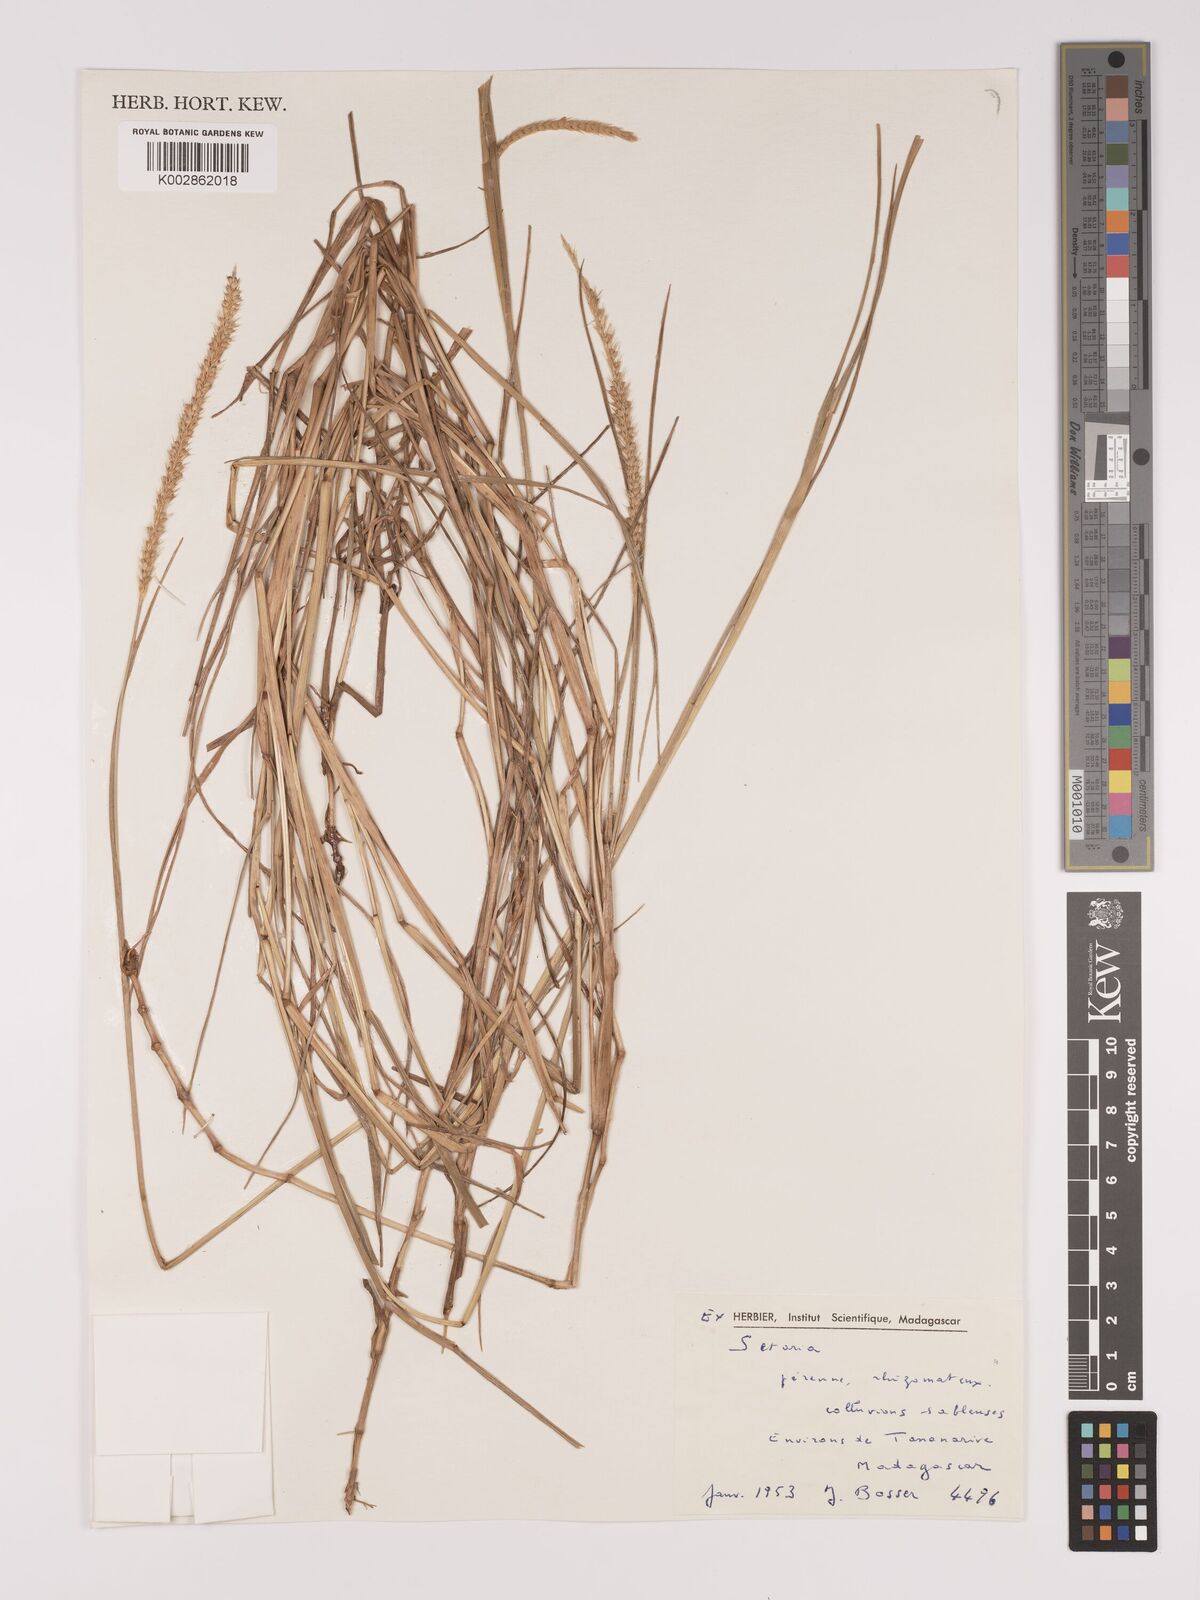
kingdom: Plantae
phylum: Tracheophyta
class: Liliopsida
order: Poales
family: Poaceae
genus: Setaria
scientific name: Setaria sphacelata
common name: African bristlegrass
